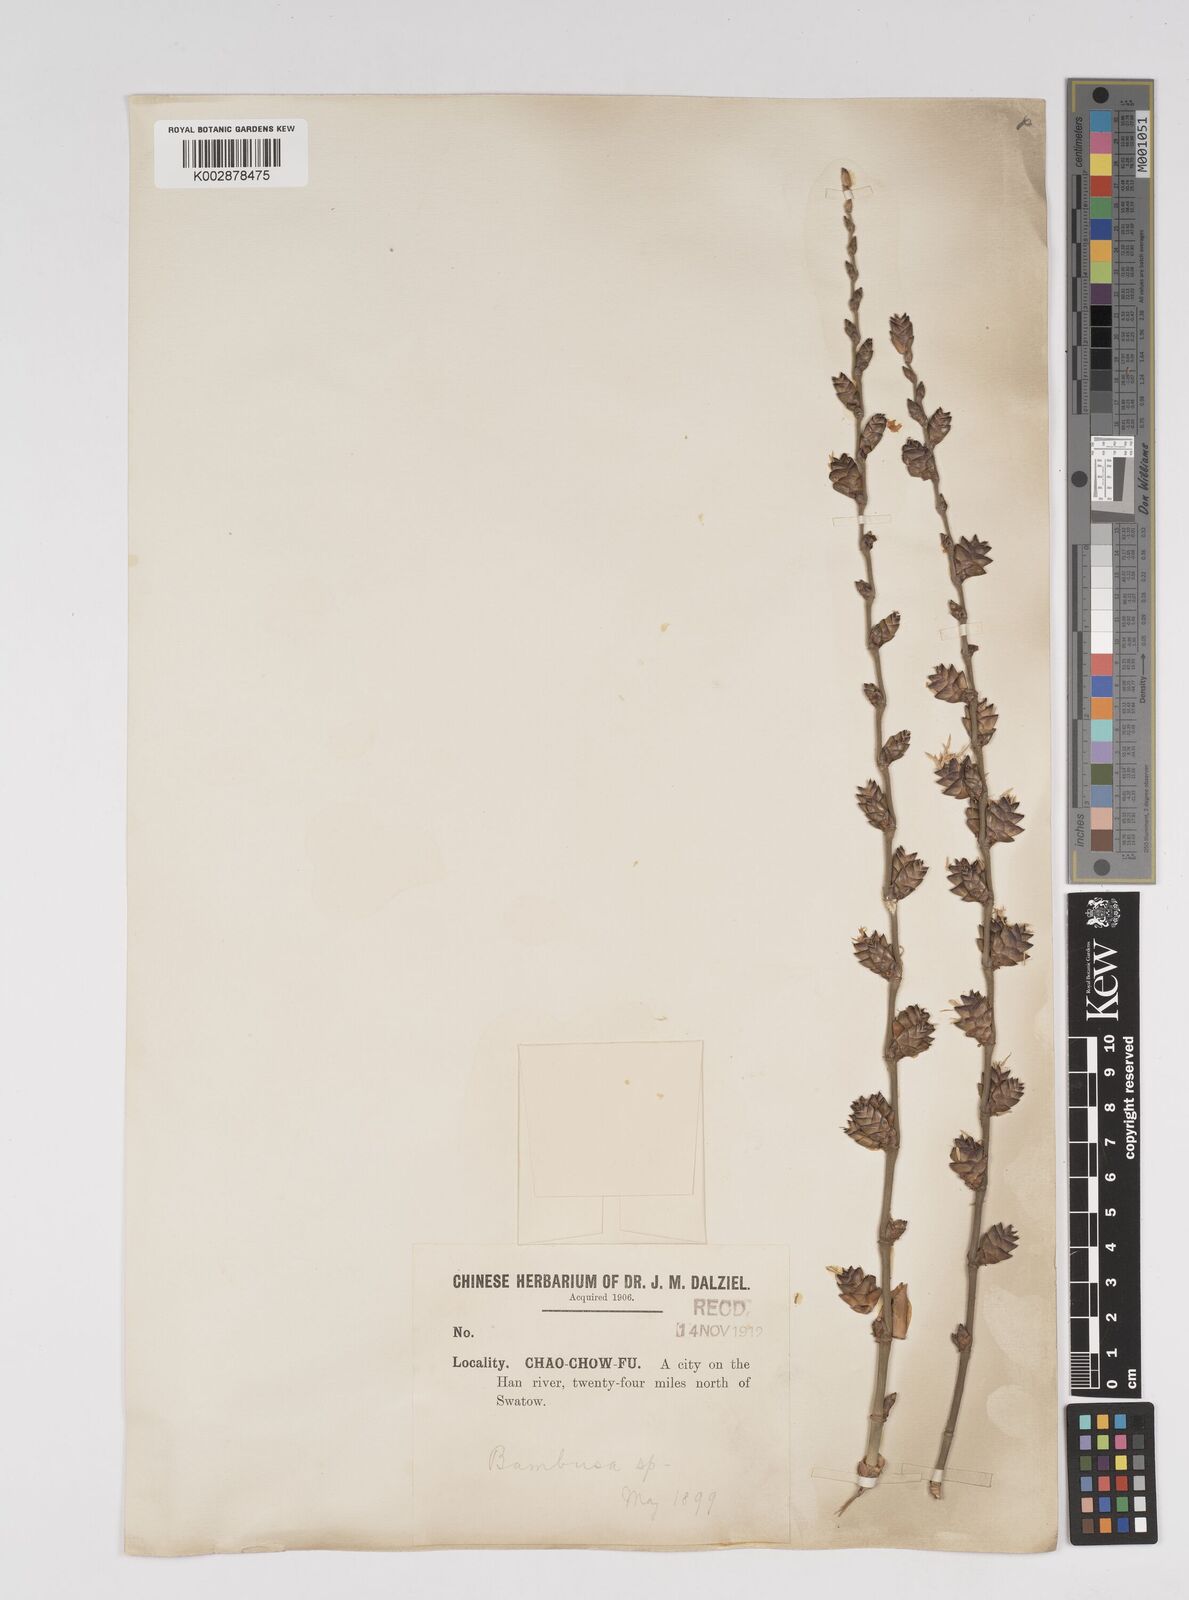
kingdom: Plantae
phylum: Tracheophyta
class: Liliopsida
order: Poales
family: Poaceae
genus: Dendrocalamus
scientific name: Dendrocalamus latiflorus
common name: Giant bamboo
